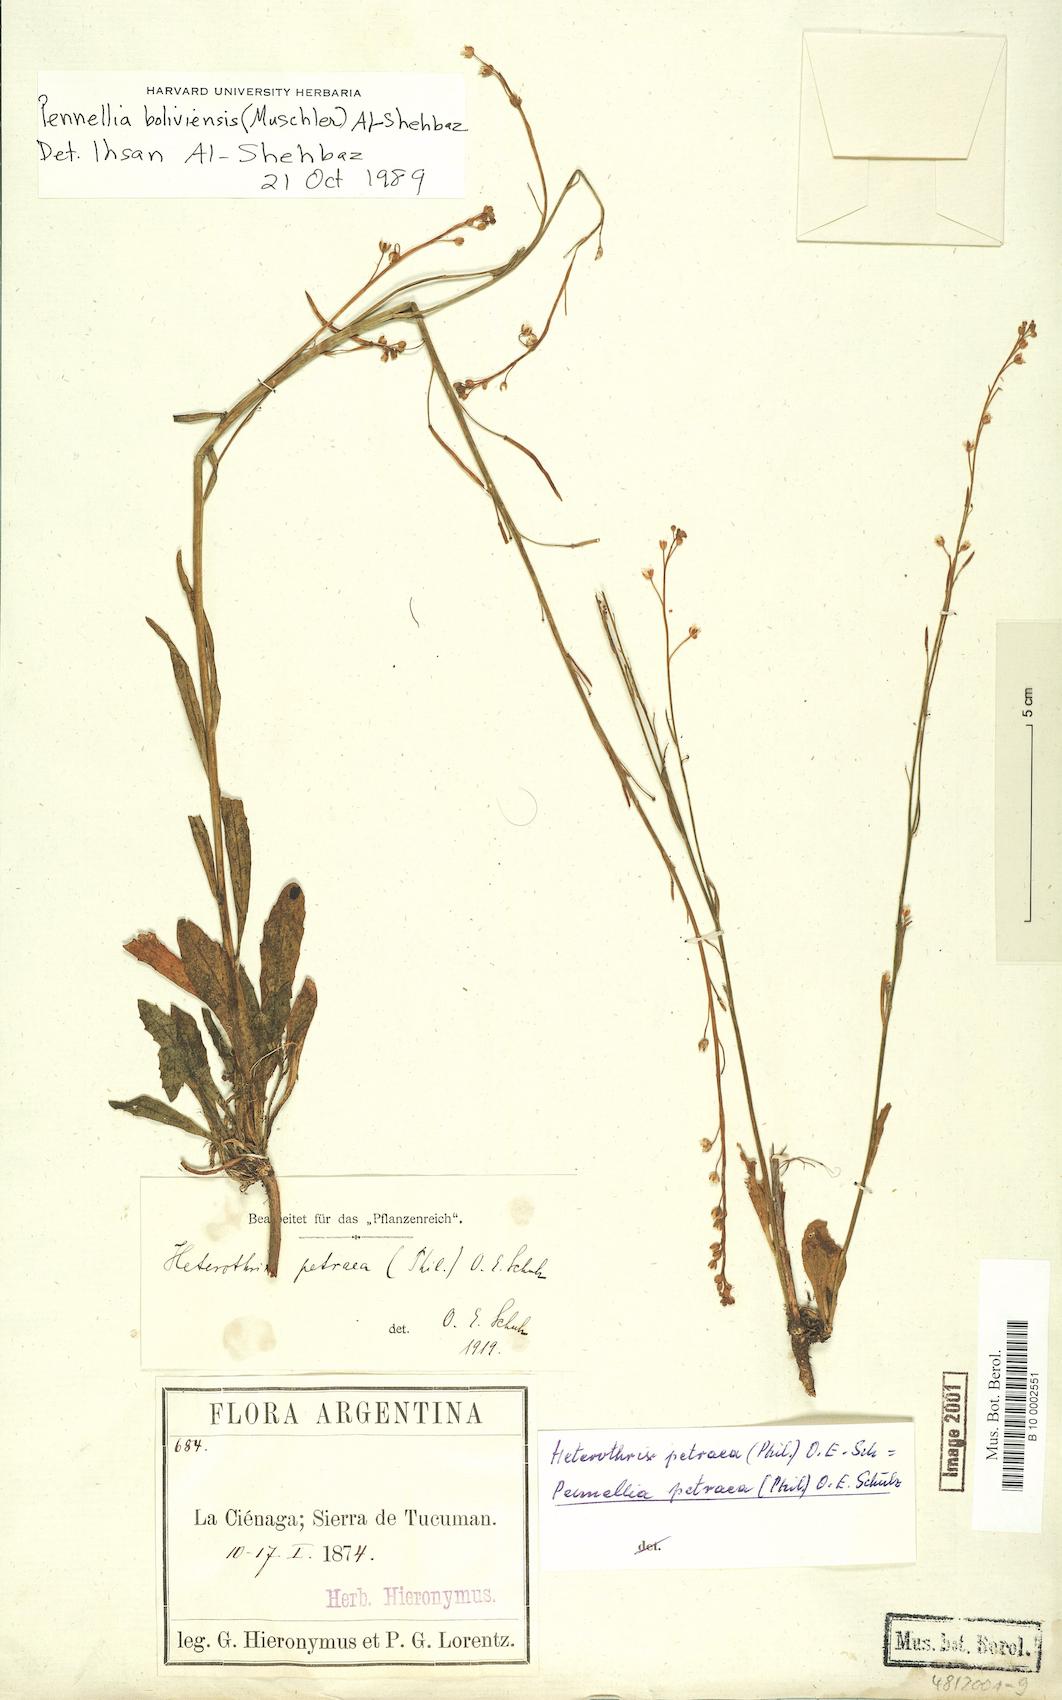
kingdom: Plantae
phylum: Tracheophyta
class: Magnoliopsida
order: Brassicales
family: Brassicaceae
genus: Pennellia
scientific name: Pennellia boliviensis
